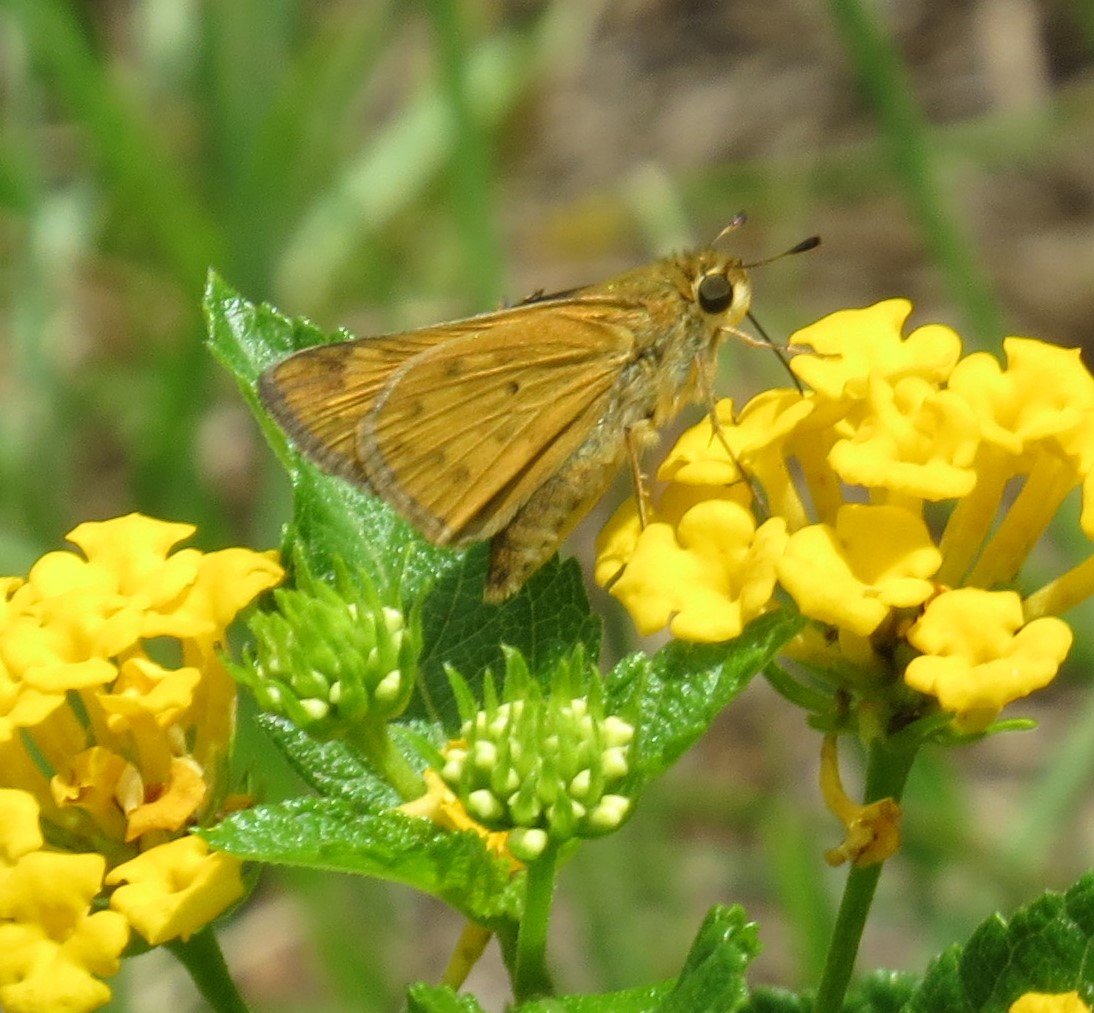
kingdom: Animalia
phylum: Arthropoda
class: Insecta
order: Lepidoptera
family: Hesperiidae
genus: Hylephila
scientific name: Hylephila phyleus
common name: Fiery Skipper
